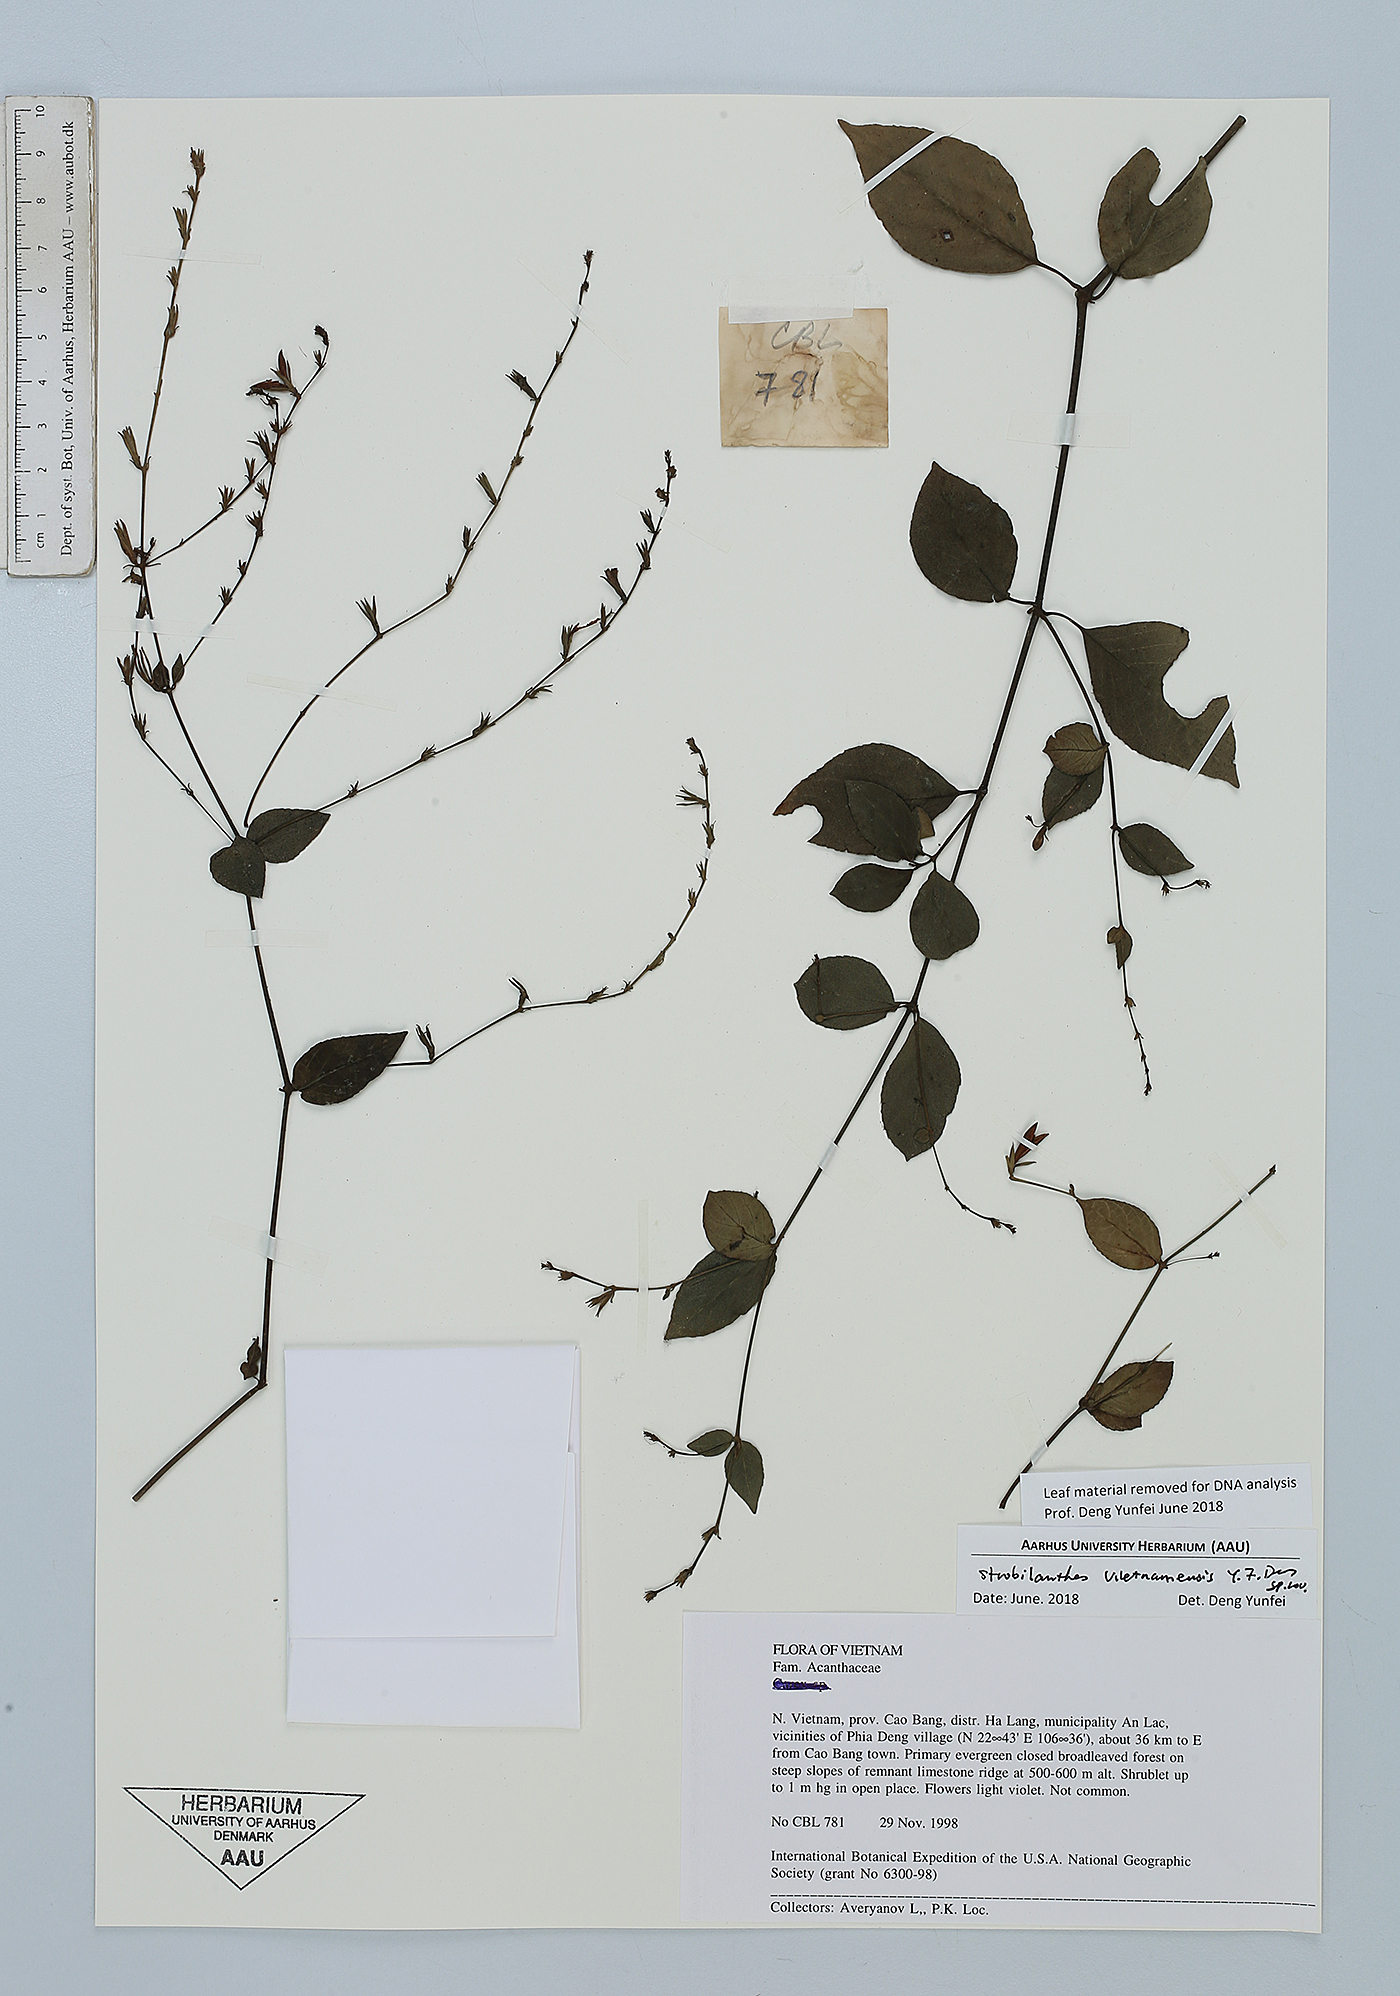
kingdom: Plantae
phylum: Tracheophyta
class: Magnoliopsida
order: Lamiales
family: Acanthaceae
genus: Strobilanthes
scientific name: Strobilanthes
